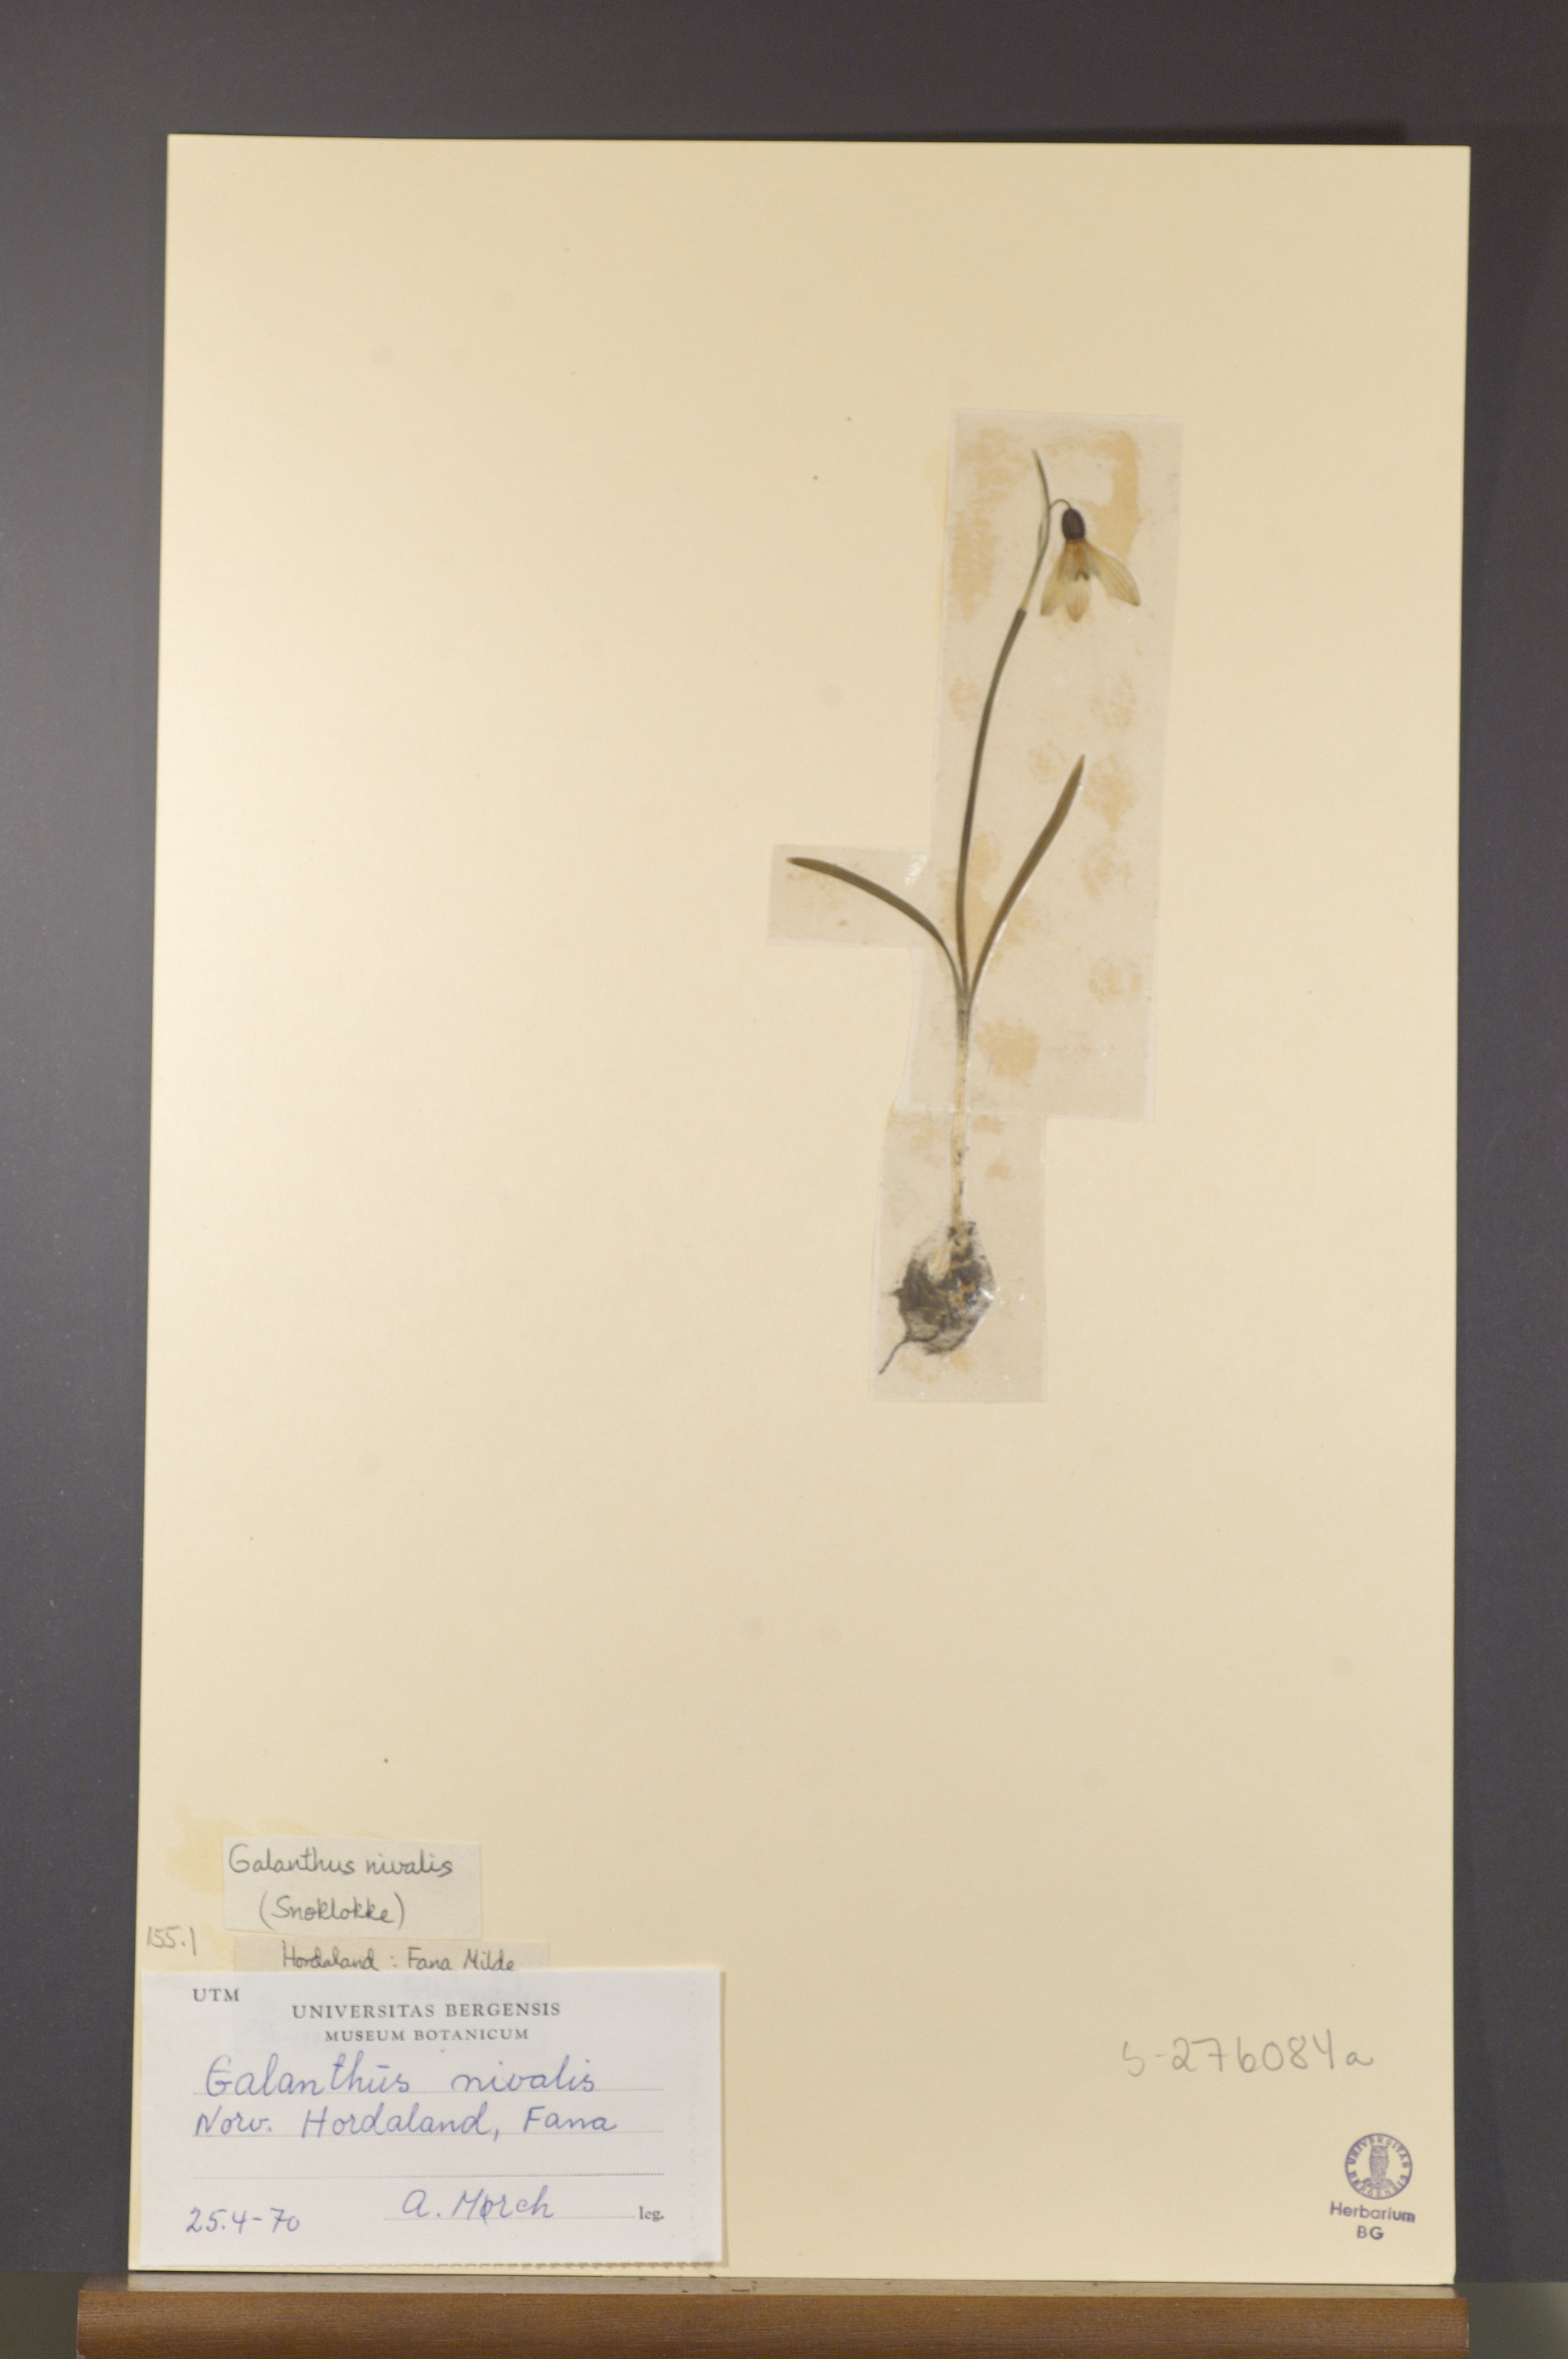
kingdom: Plantae
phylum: Tracheophyta
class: Liliopsida
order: Asparagales
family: Amaryllidaceae
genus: Galanthus
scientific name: Galanthus nivalis
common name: Snowdrop
